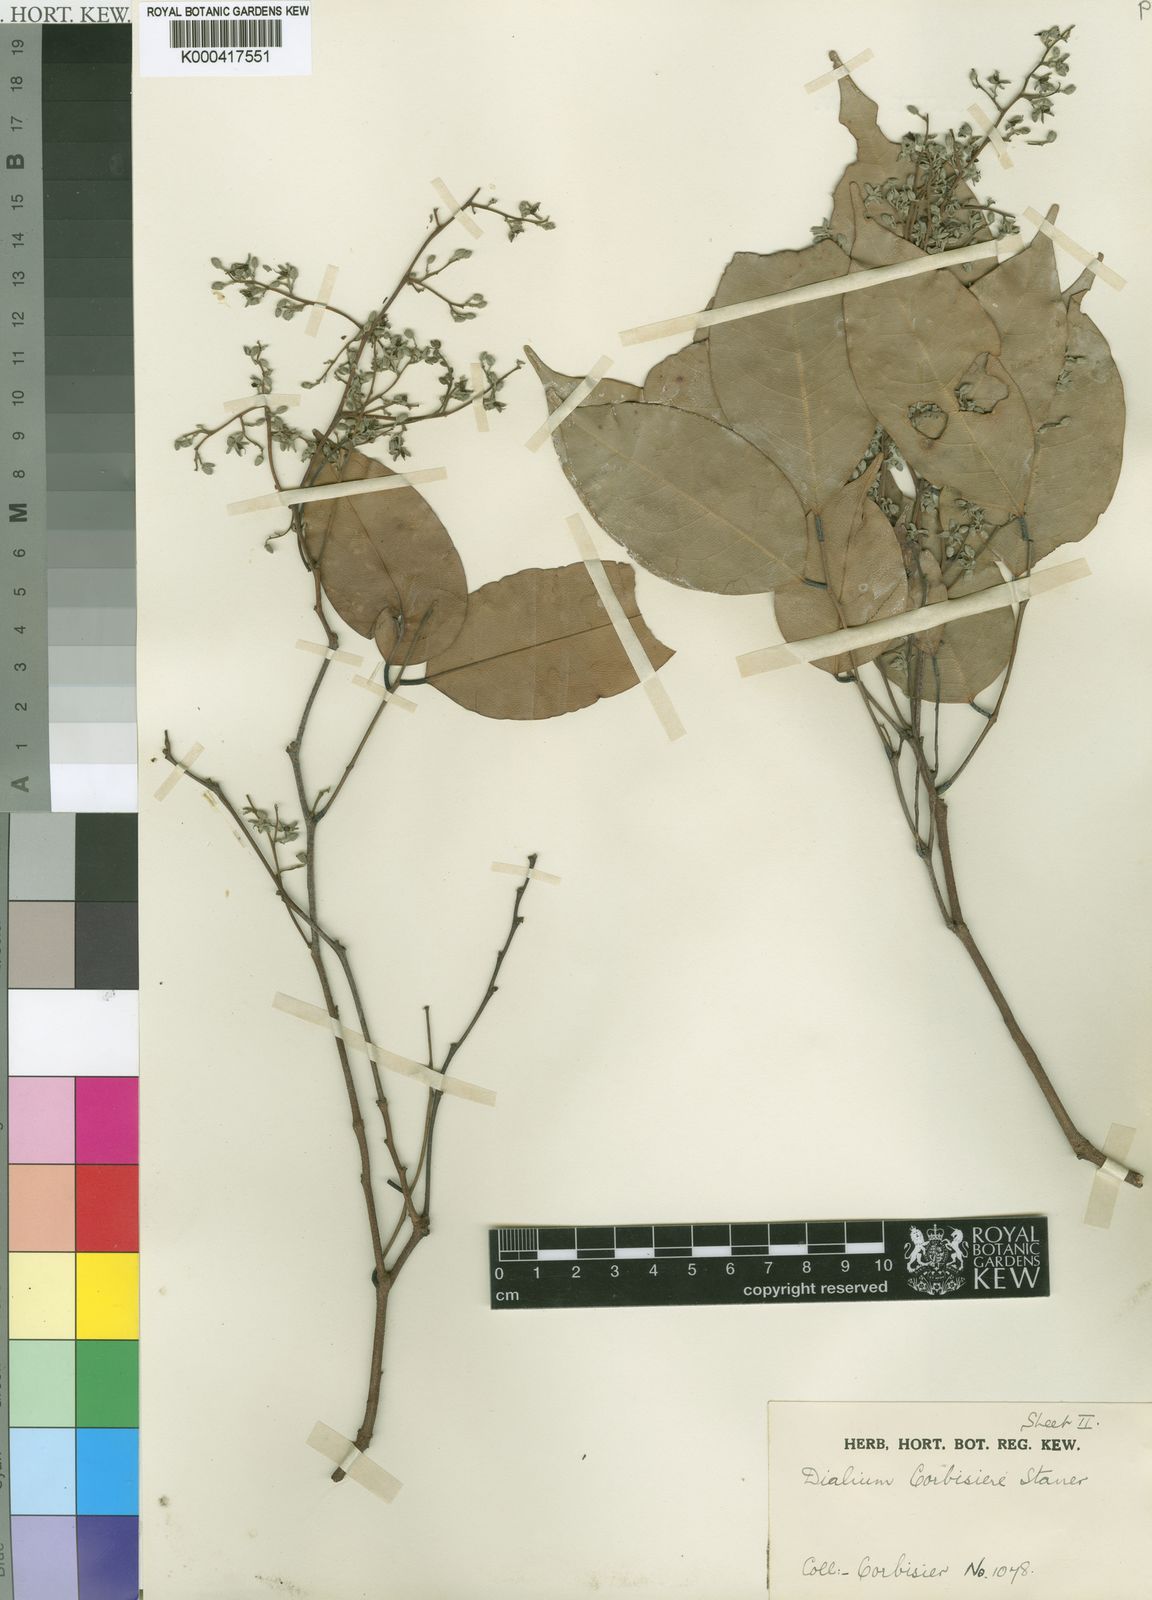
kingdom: Plantae
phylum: Tracheophyta
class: Magnoliopsida
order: Fabales
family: Fabaceae
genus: Dialium
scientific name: Dialium
